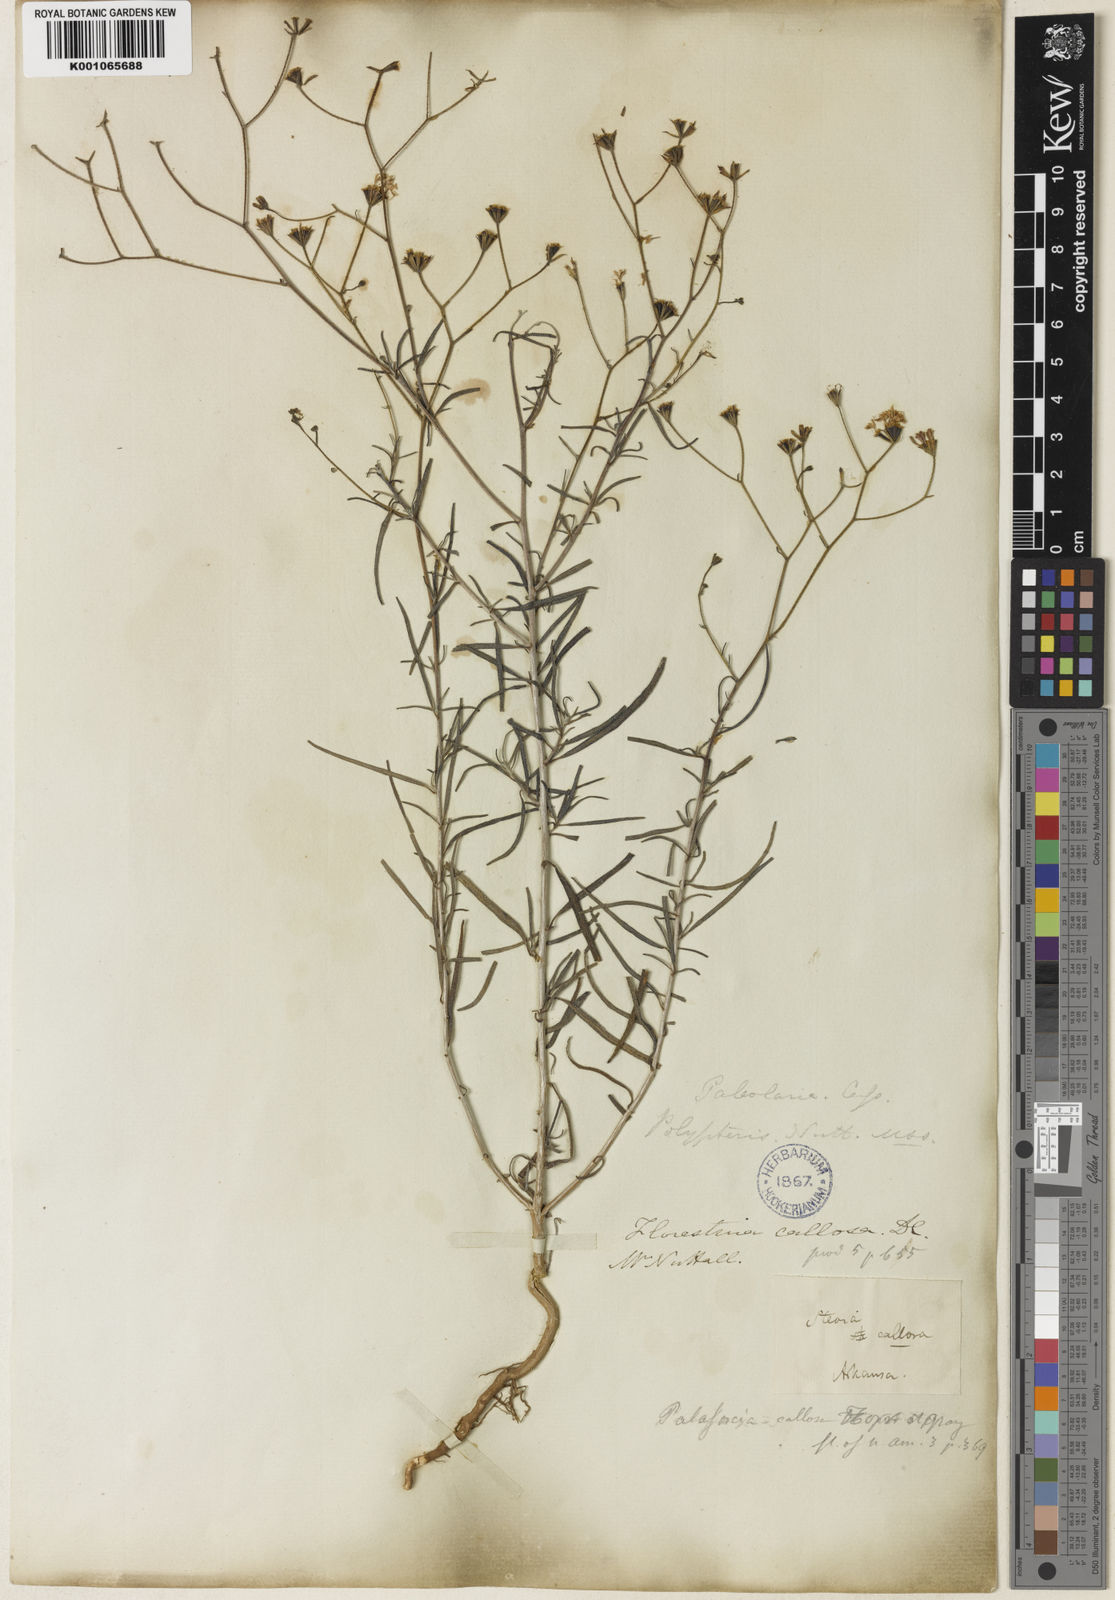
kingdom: Plantae
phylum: Tracheophyta
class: Magnoliopsida
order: Asterales
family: Asteraceae
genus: Palafoxia
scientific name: Palafoxia callosa
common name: Small palafox
